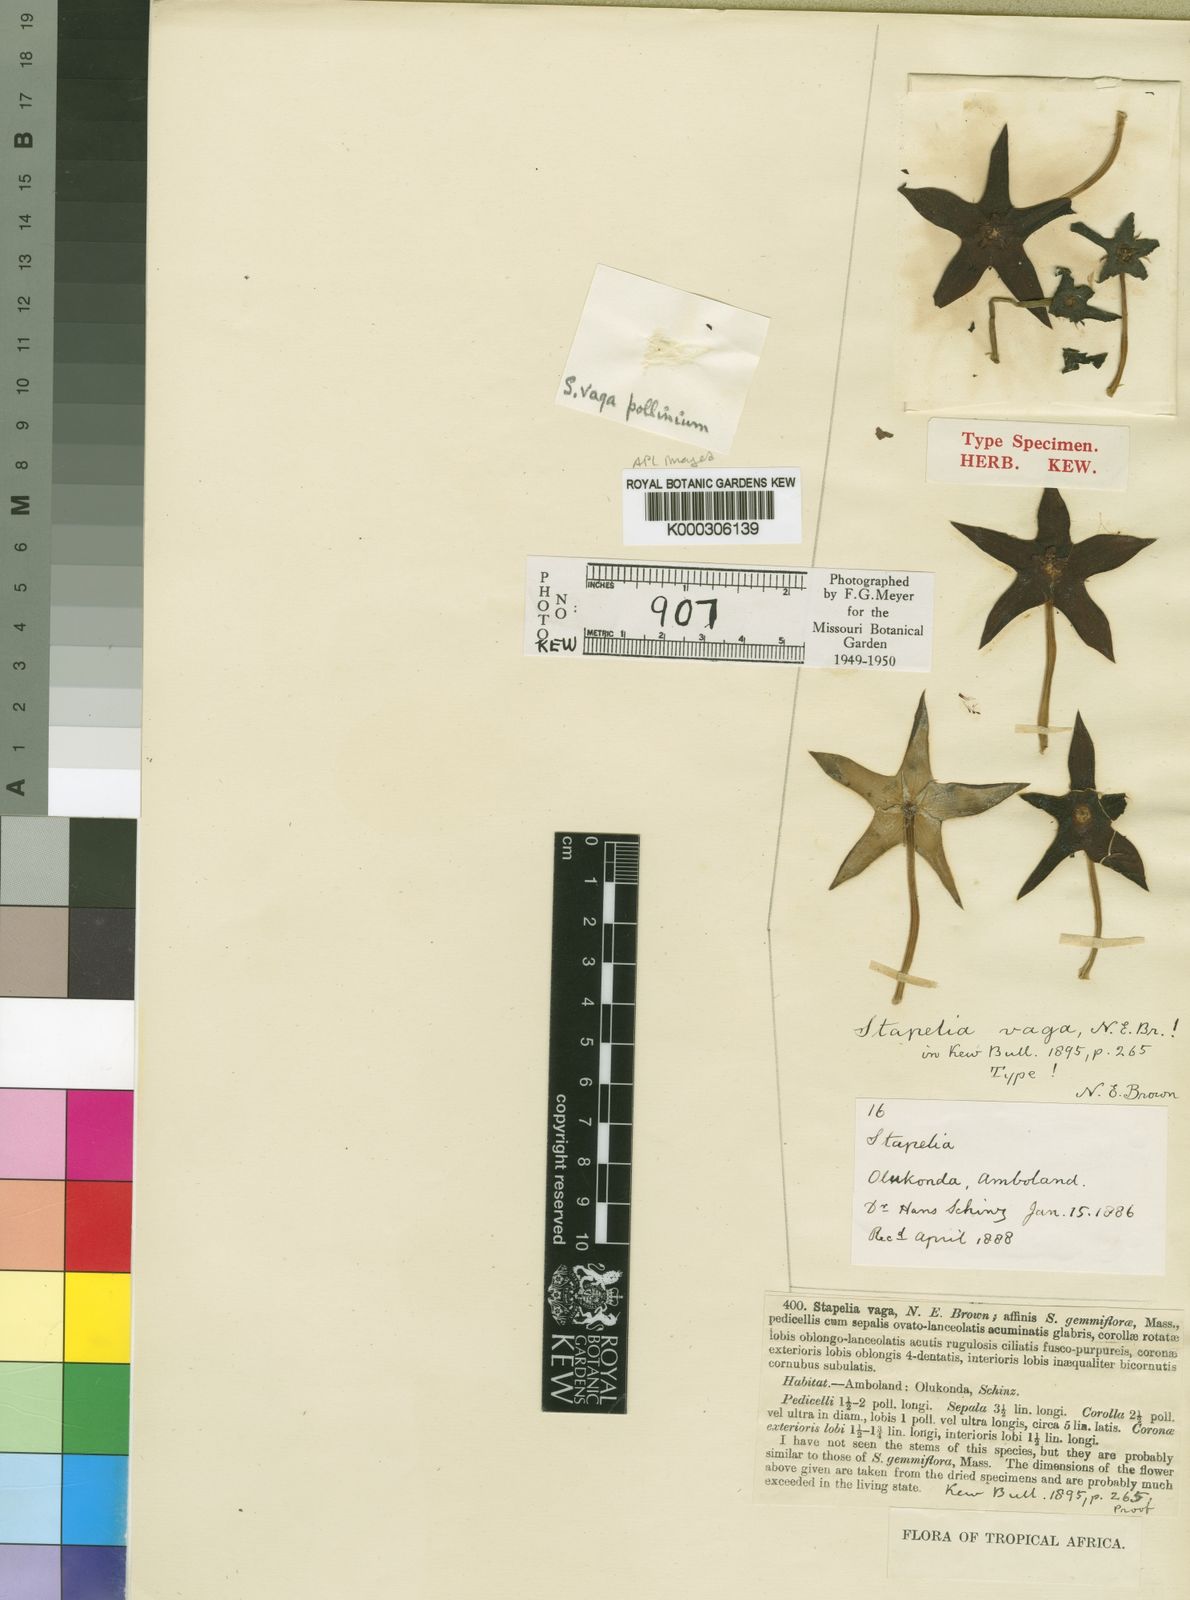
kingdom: Plantae
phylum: Tracheophyta
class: Magnoliopsida
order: Gentianales
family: Apocynaceae
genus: Ceropegia
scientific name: Ceropegia lutea
